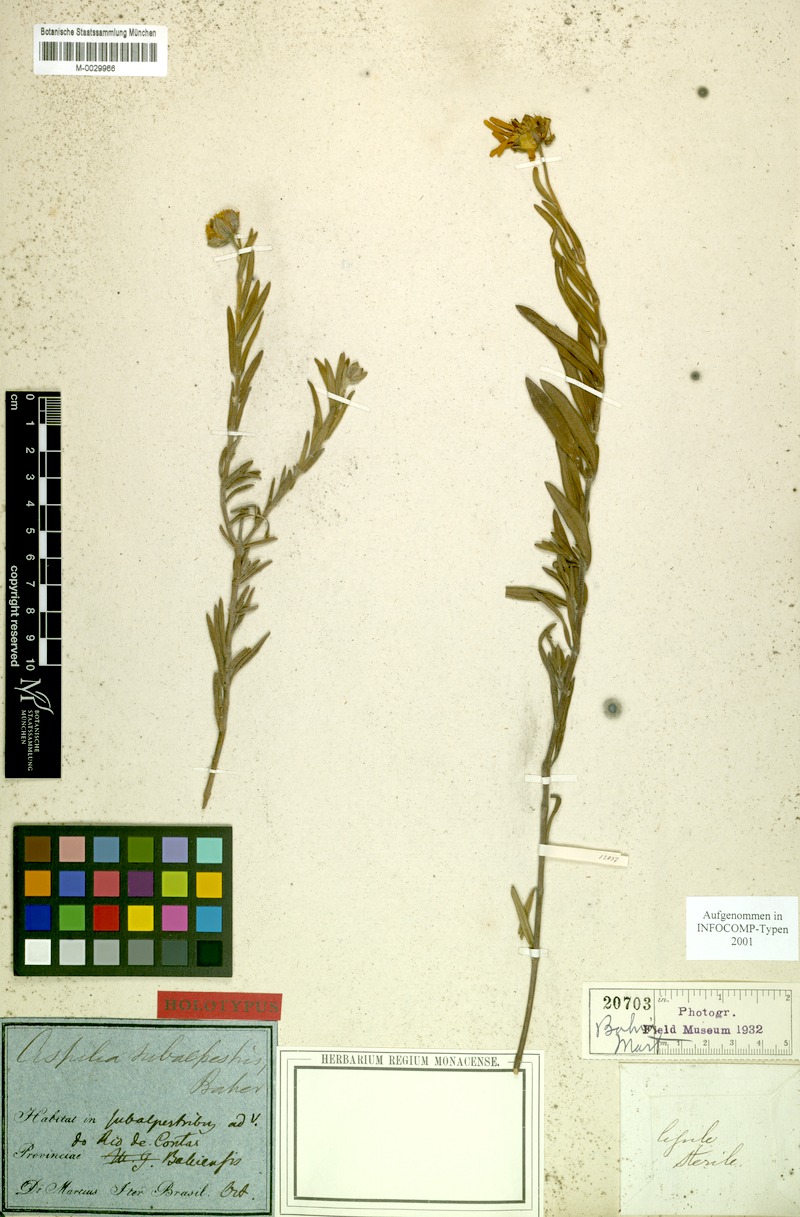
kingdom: Plantae
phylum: Tracheophyta
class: Magnoliopsida
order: Asterales
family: Asteraceae
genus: Wedelia
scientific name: Wedelia subalpestris
